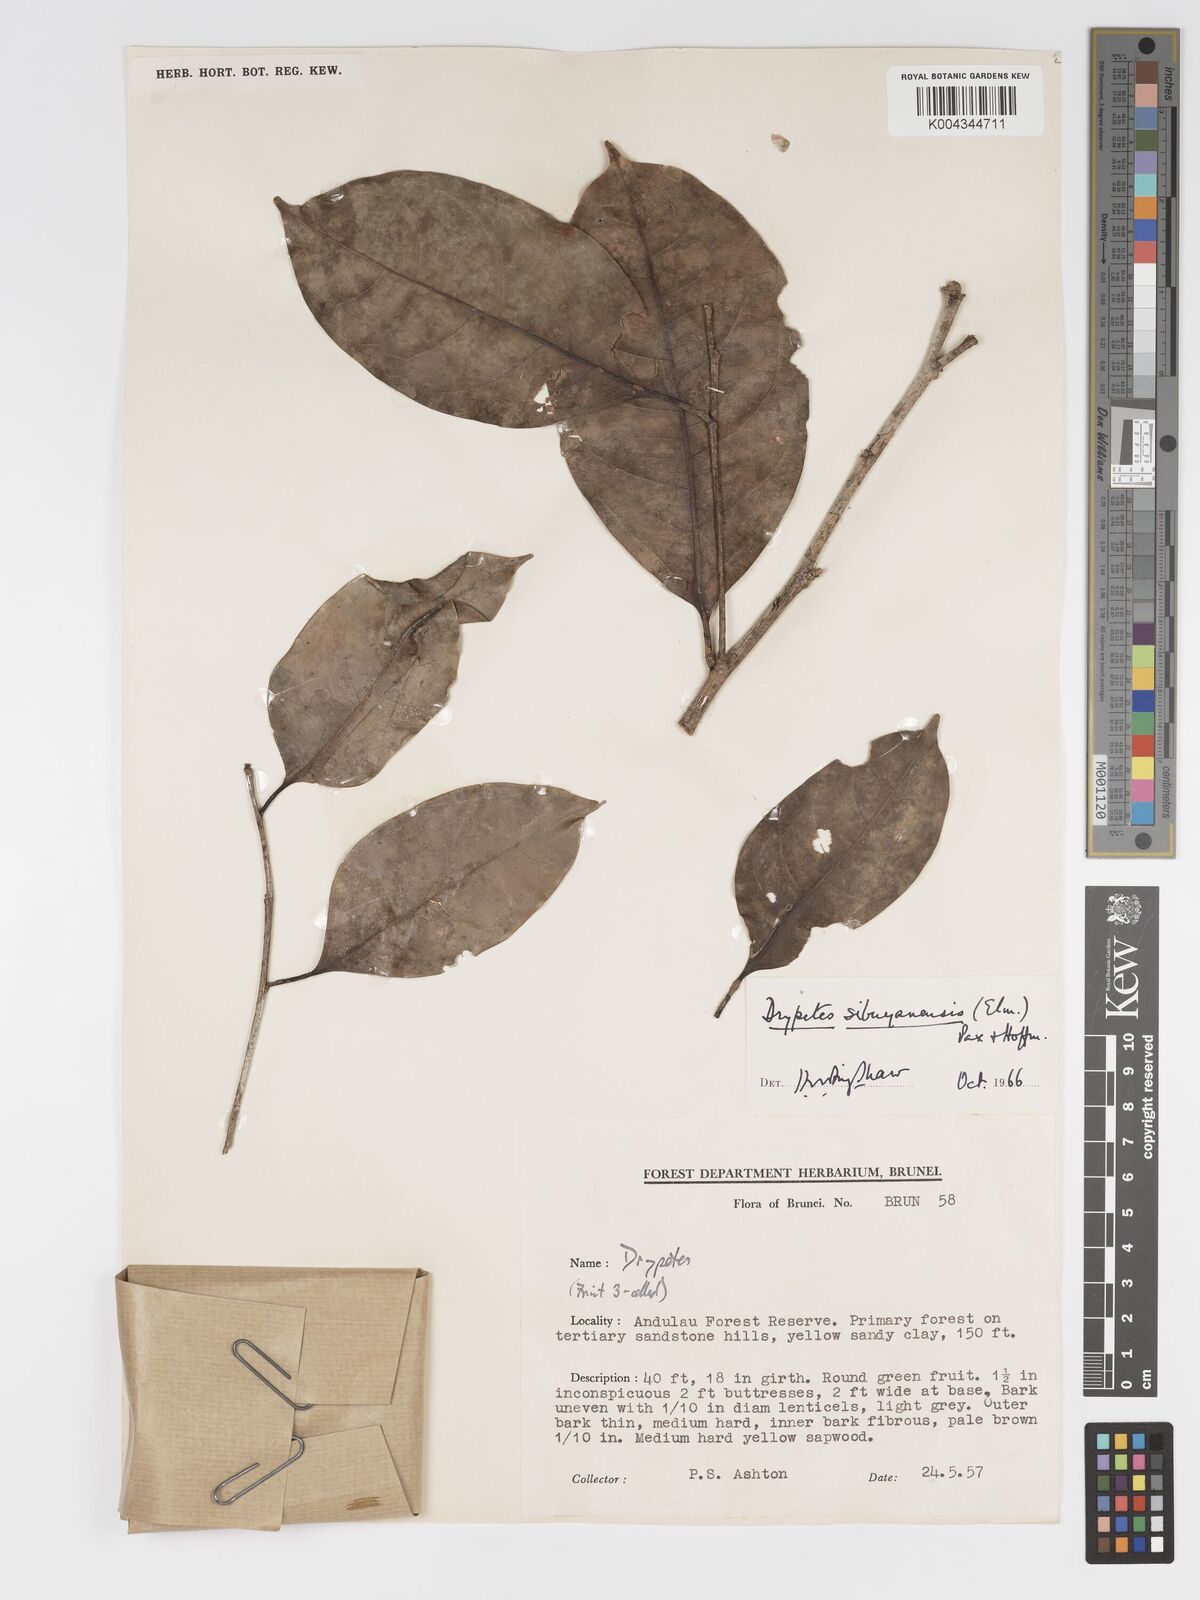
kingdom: Plantae
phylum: Tracheophyta
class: Magnoliopsida
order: Malpighiales
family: Putranjivaceae
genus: Drypetes
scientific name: Drypetes sibuyanensis
